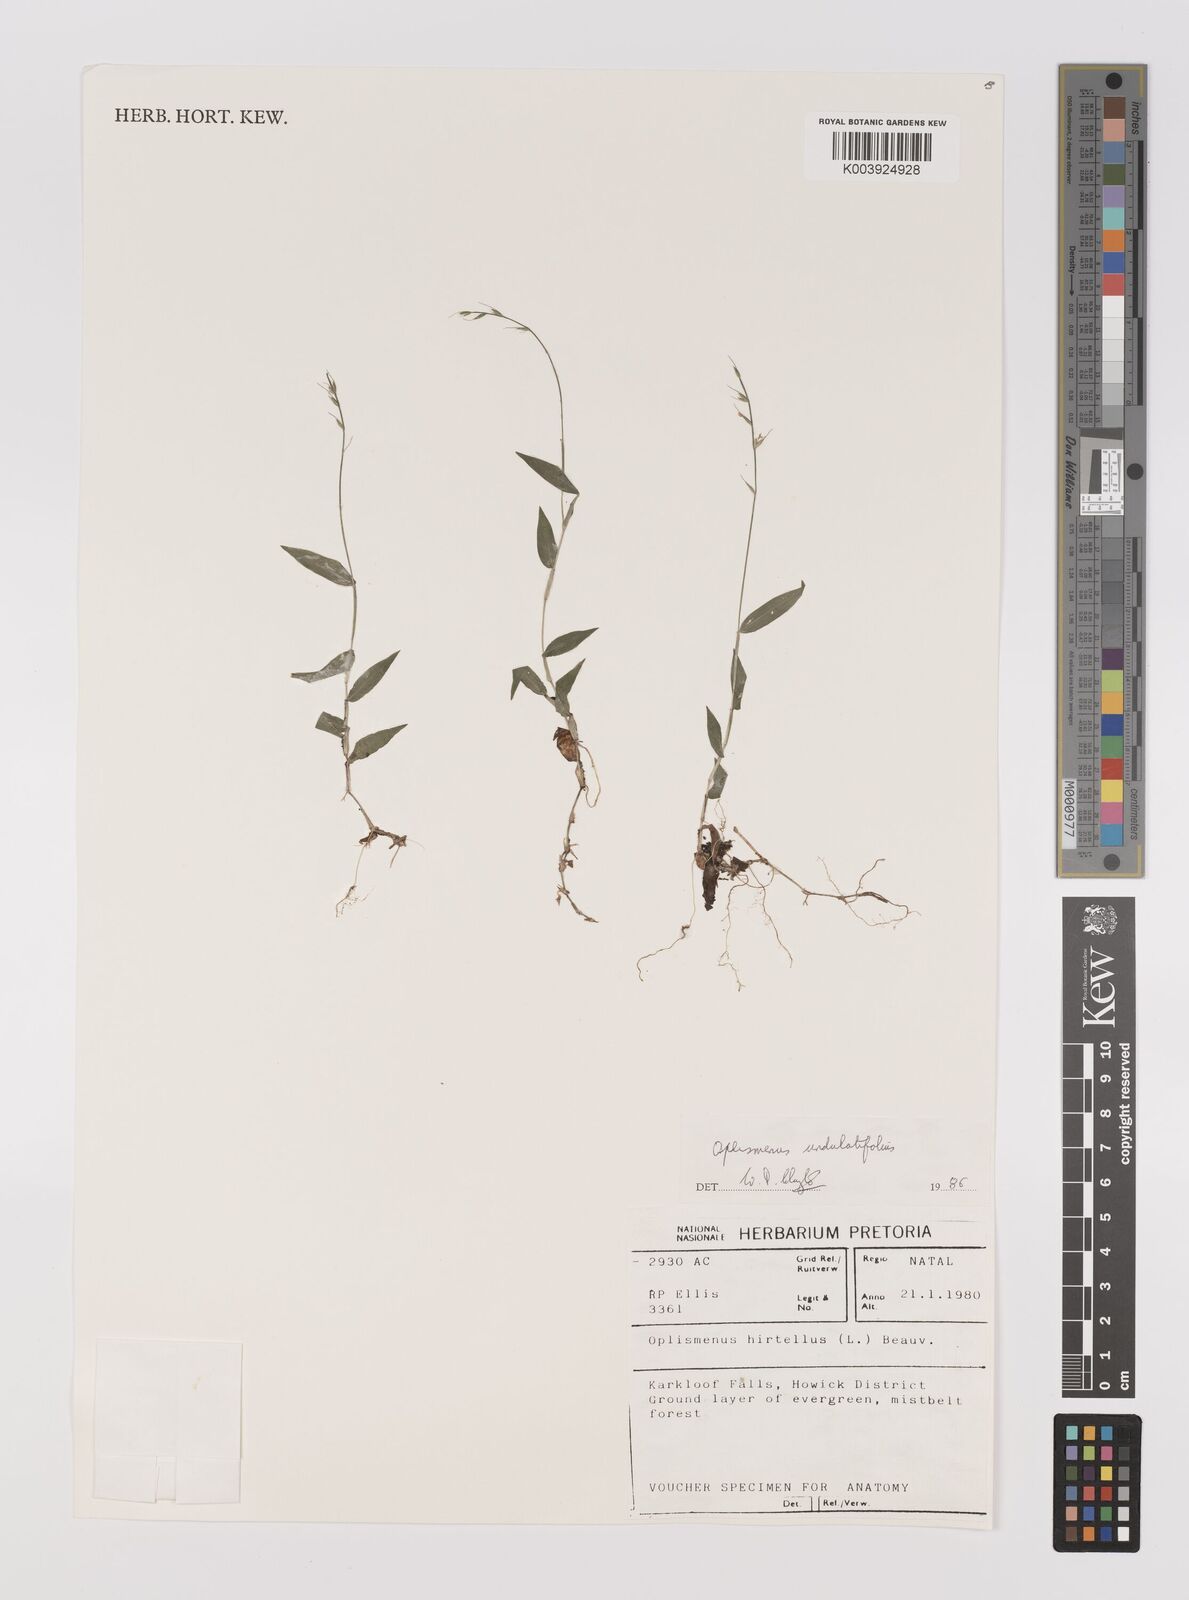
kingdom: Plantae
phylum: Tracheophyta
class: Liliopsida
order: Poales
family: Poaceae
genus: Oplismenus
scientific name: Oplismenus undulatifolius
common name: Wavyleaf basketgrass
